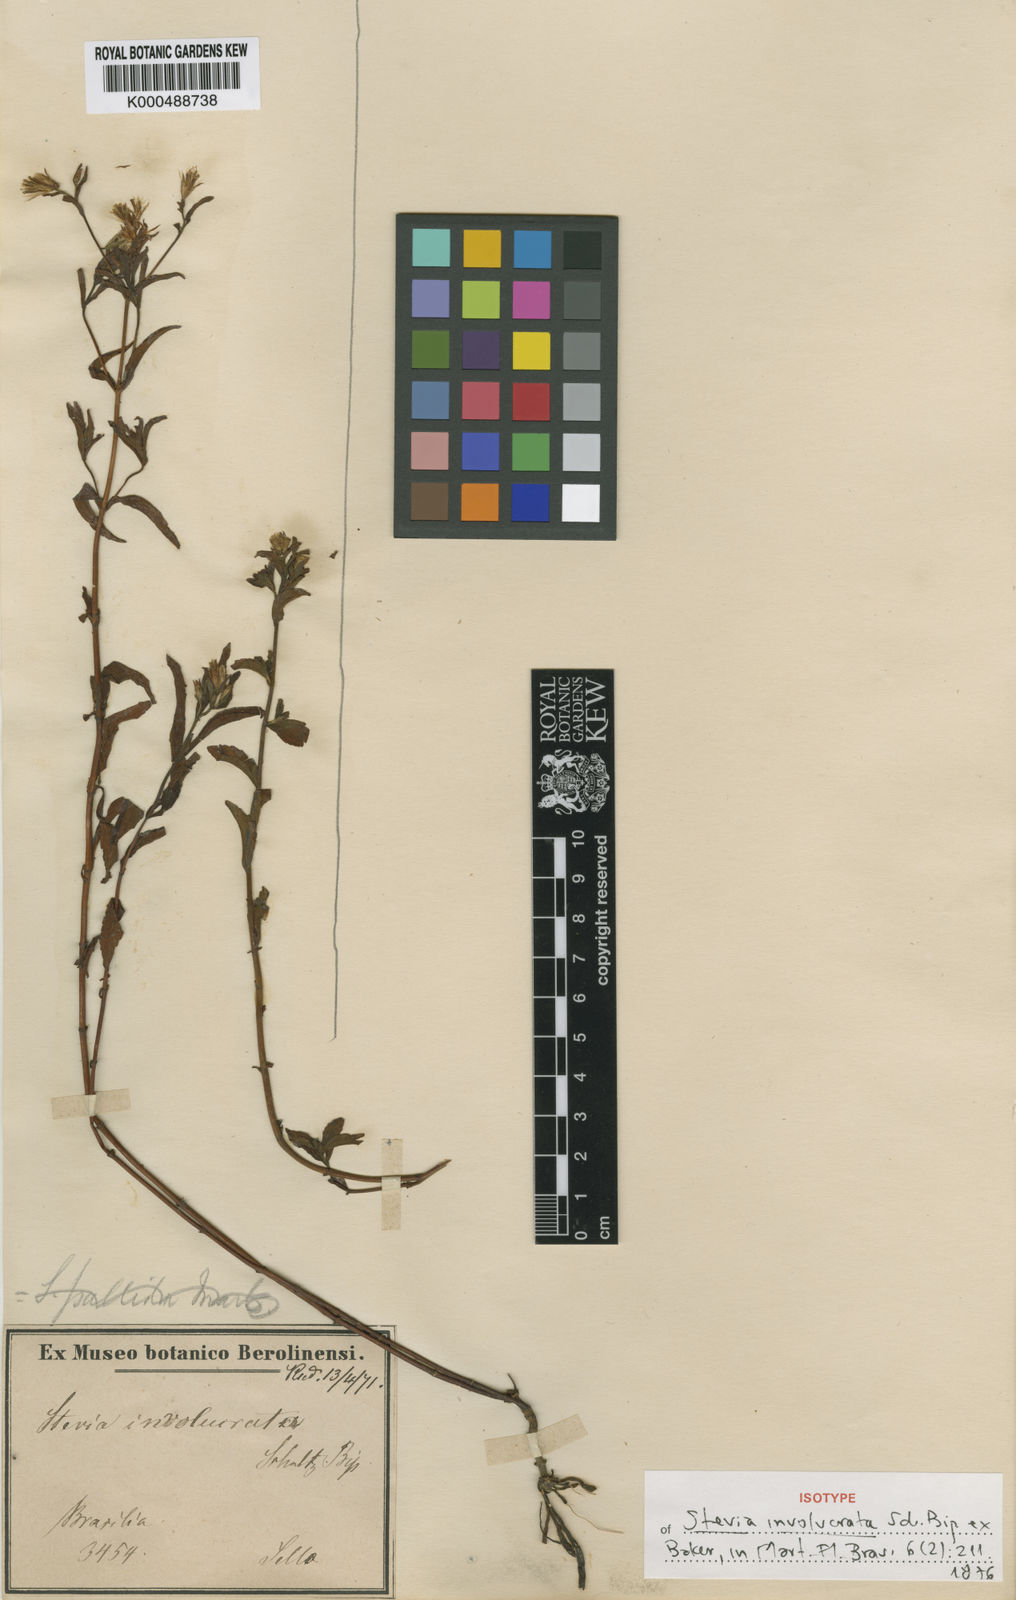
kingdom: Plantae
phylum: Tracheophyta
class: Magnoliopsida
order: Asterales
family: Asteraceae
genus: Stevia
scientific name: Stevia involucrata
